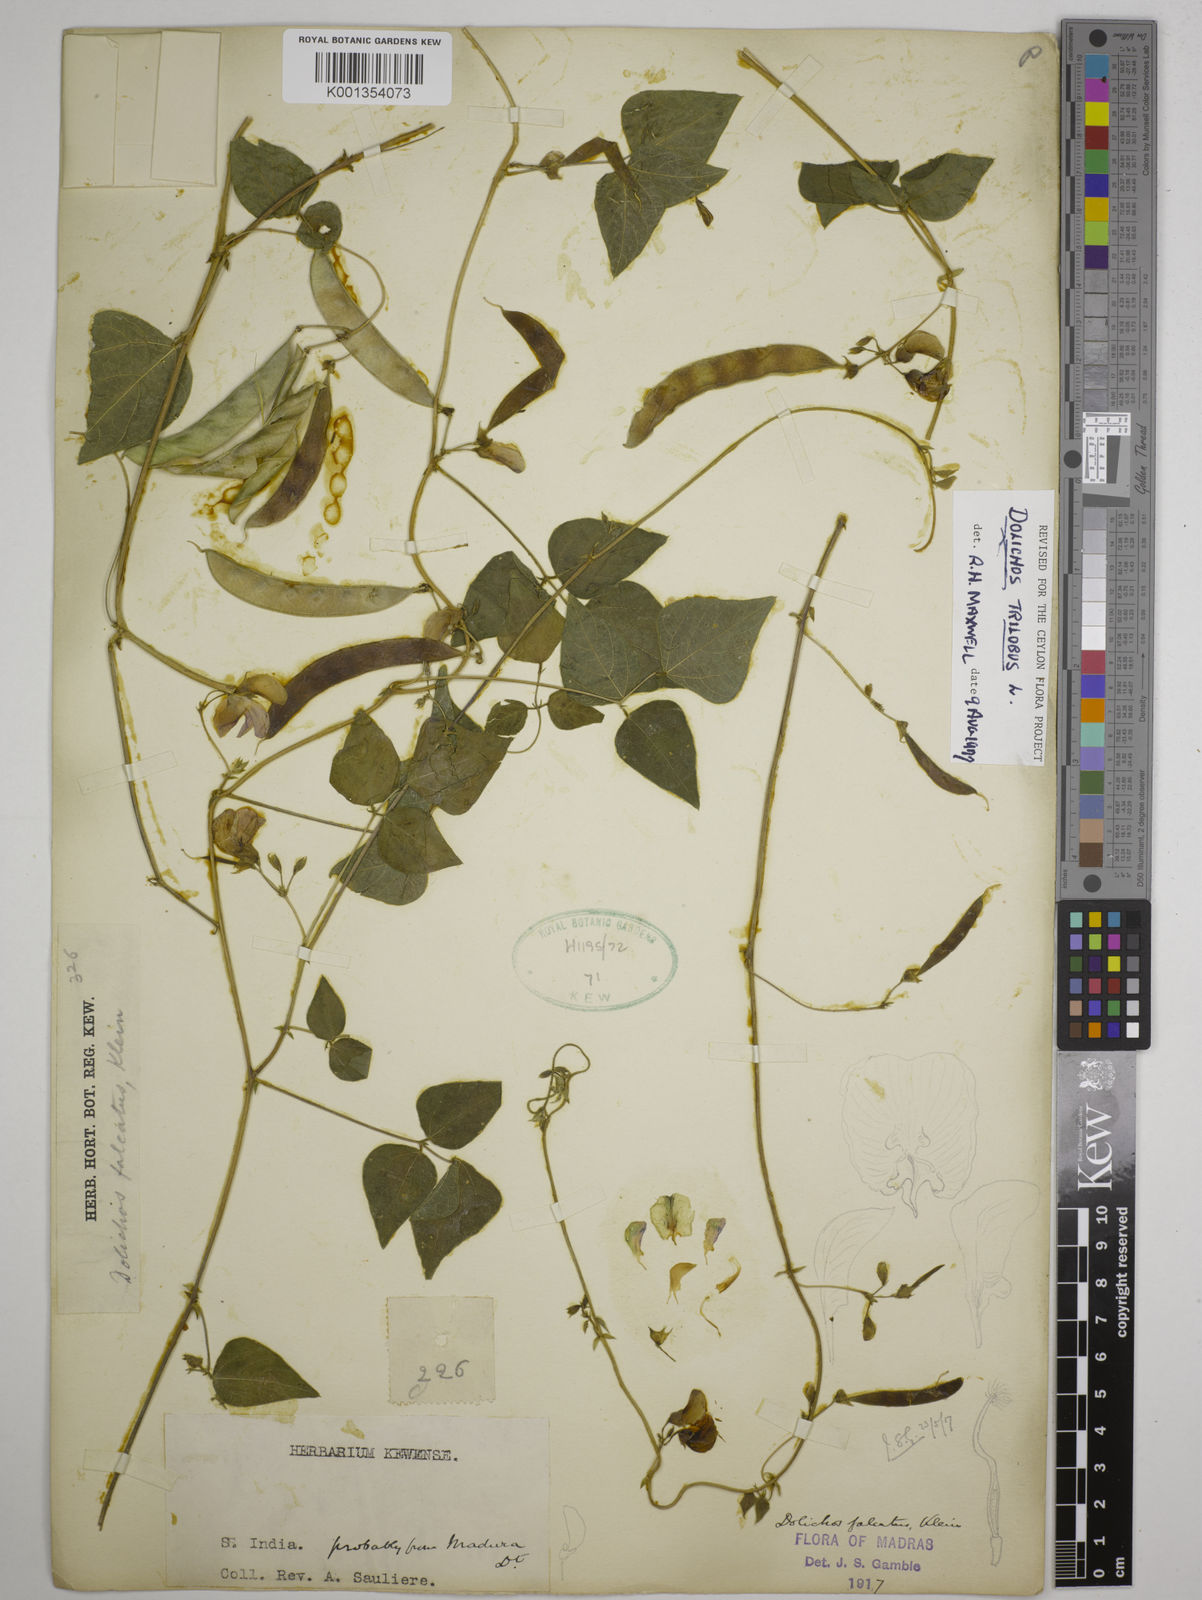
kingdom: Plantae
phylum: Tracheophyta
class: Magnoliopsida
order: Fabales
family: Fabaceae
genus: Dolichos
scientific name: Dolichos
